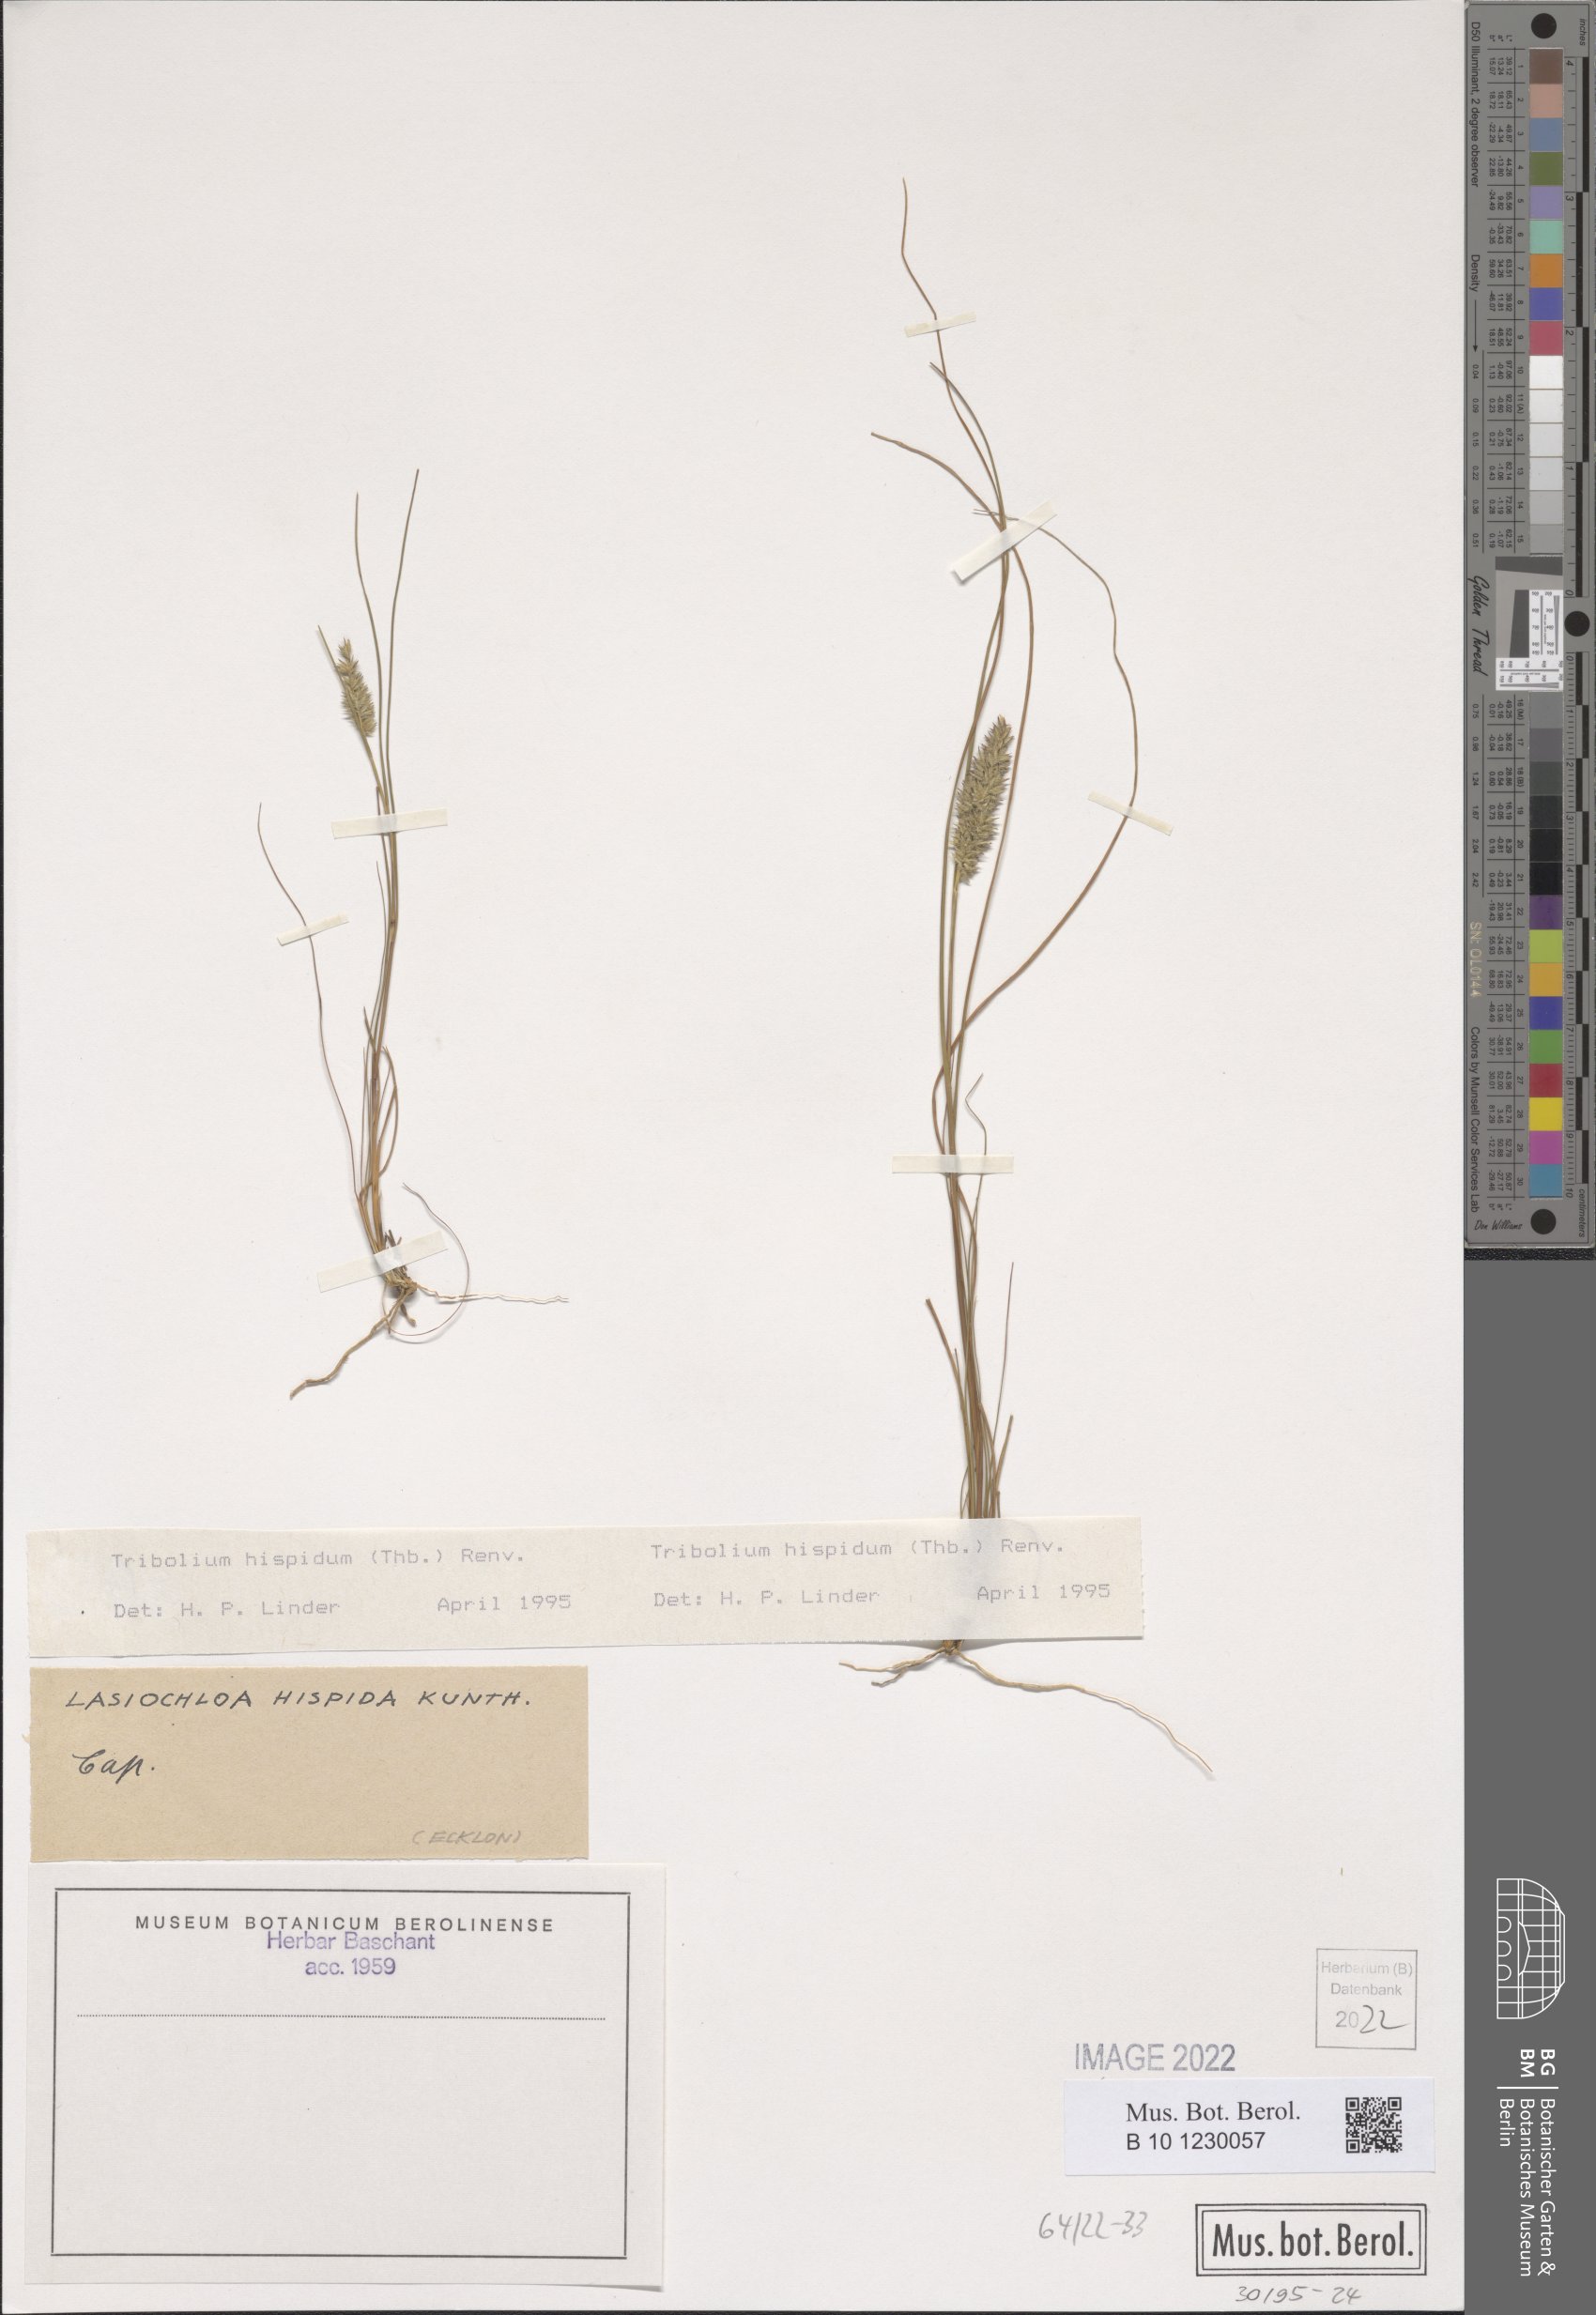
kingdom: Plantae
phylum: Tracheophyta
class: Liliopsida
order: Poales
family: Poaceae
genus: Tribolium
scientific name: Tribolium hispidum
